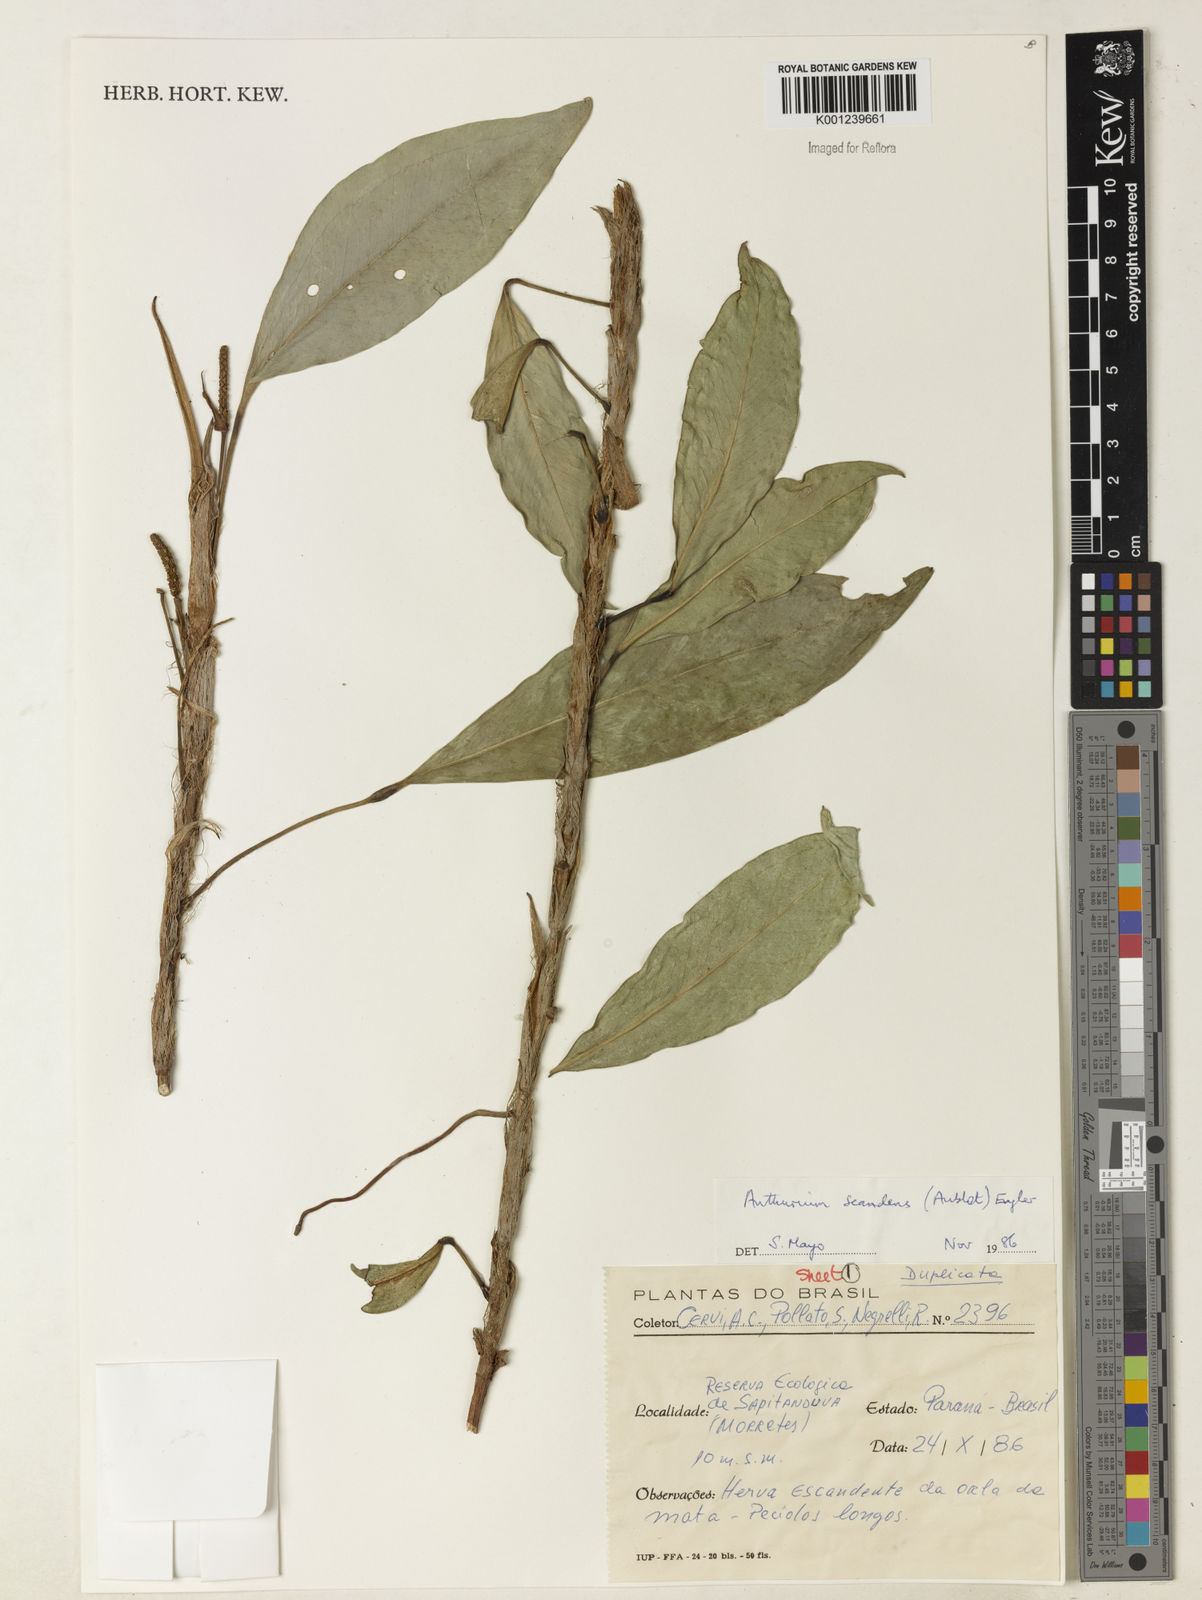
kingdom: Plantae
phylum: Tracheophyta
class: Liliopsida
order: Alismatales
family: Araceae
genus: Anthurium
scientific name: Anthurium scandens
